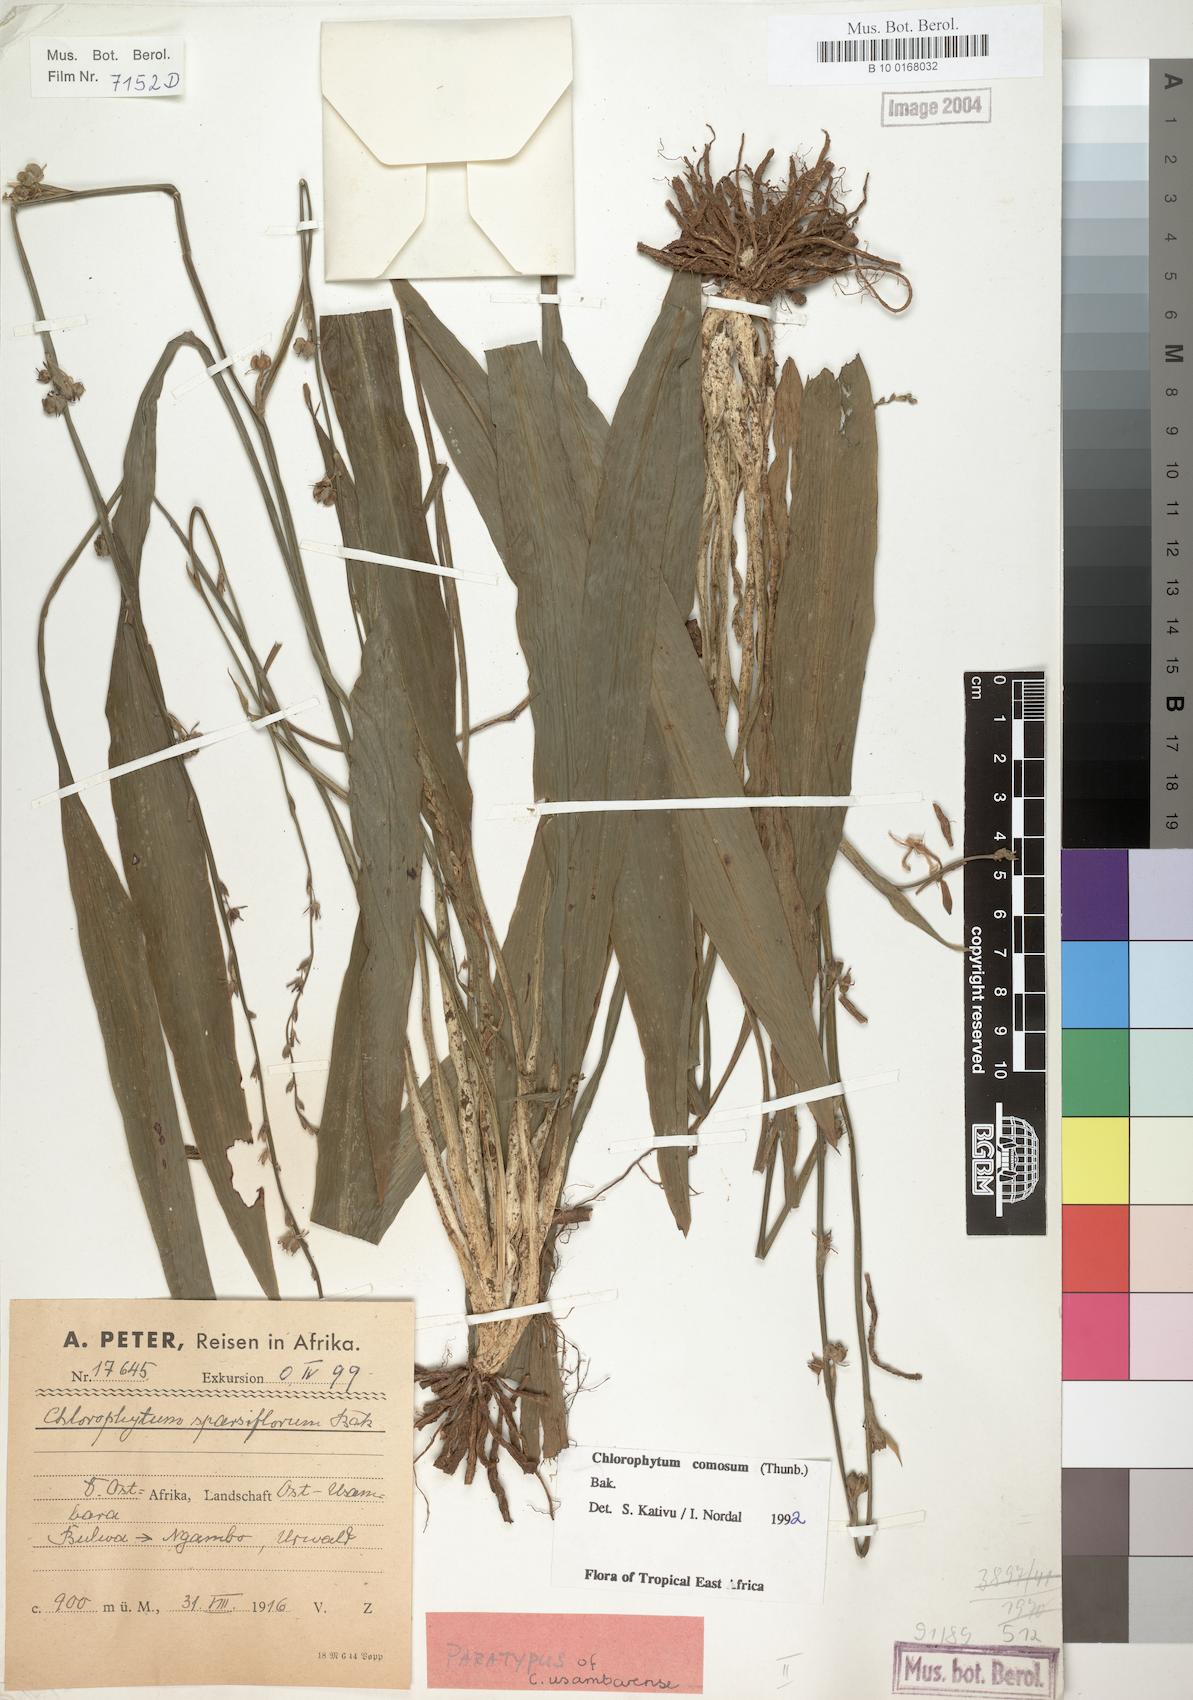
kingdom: Plantae
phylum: Tracheophyta
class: Liliopsida
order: Asparagales
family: Asparagaceae
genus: Chlorophytum
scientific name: Chlorophytum comosum
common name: Spider plant
